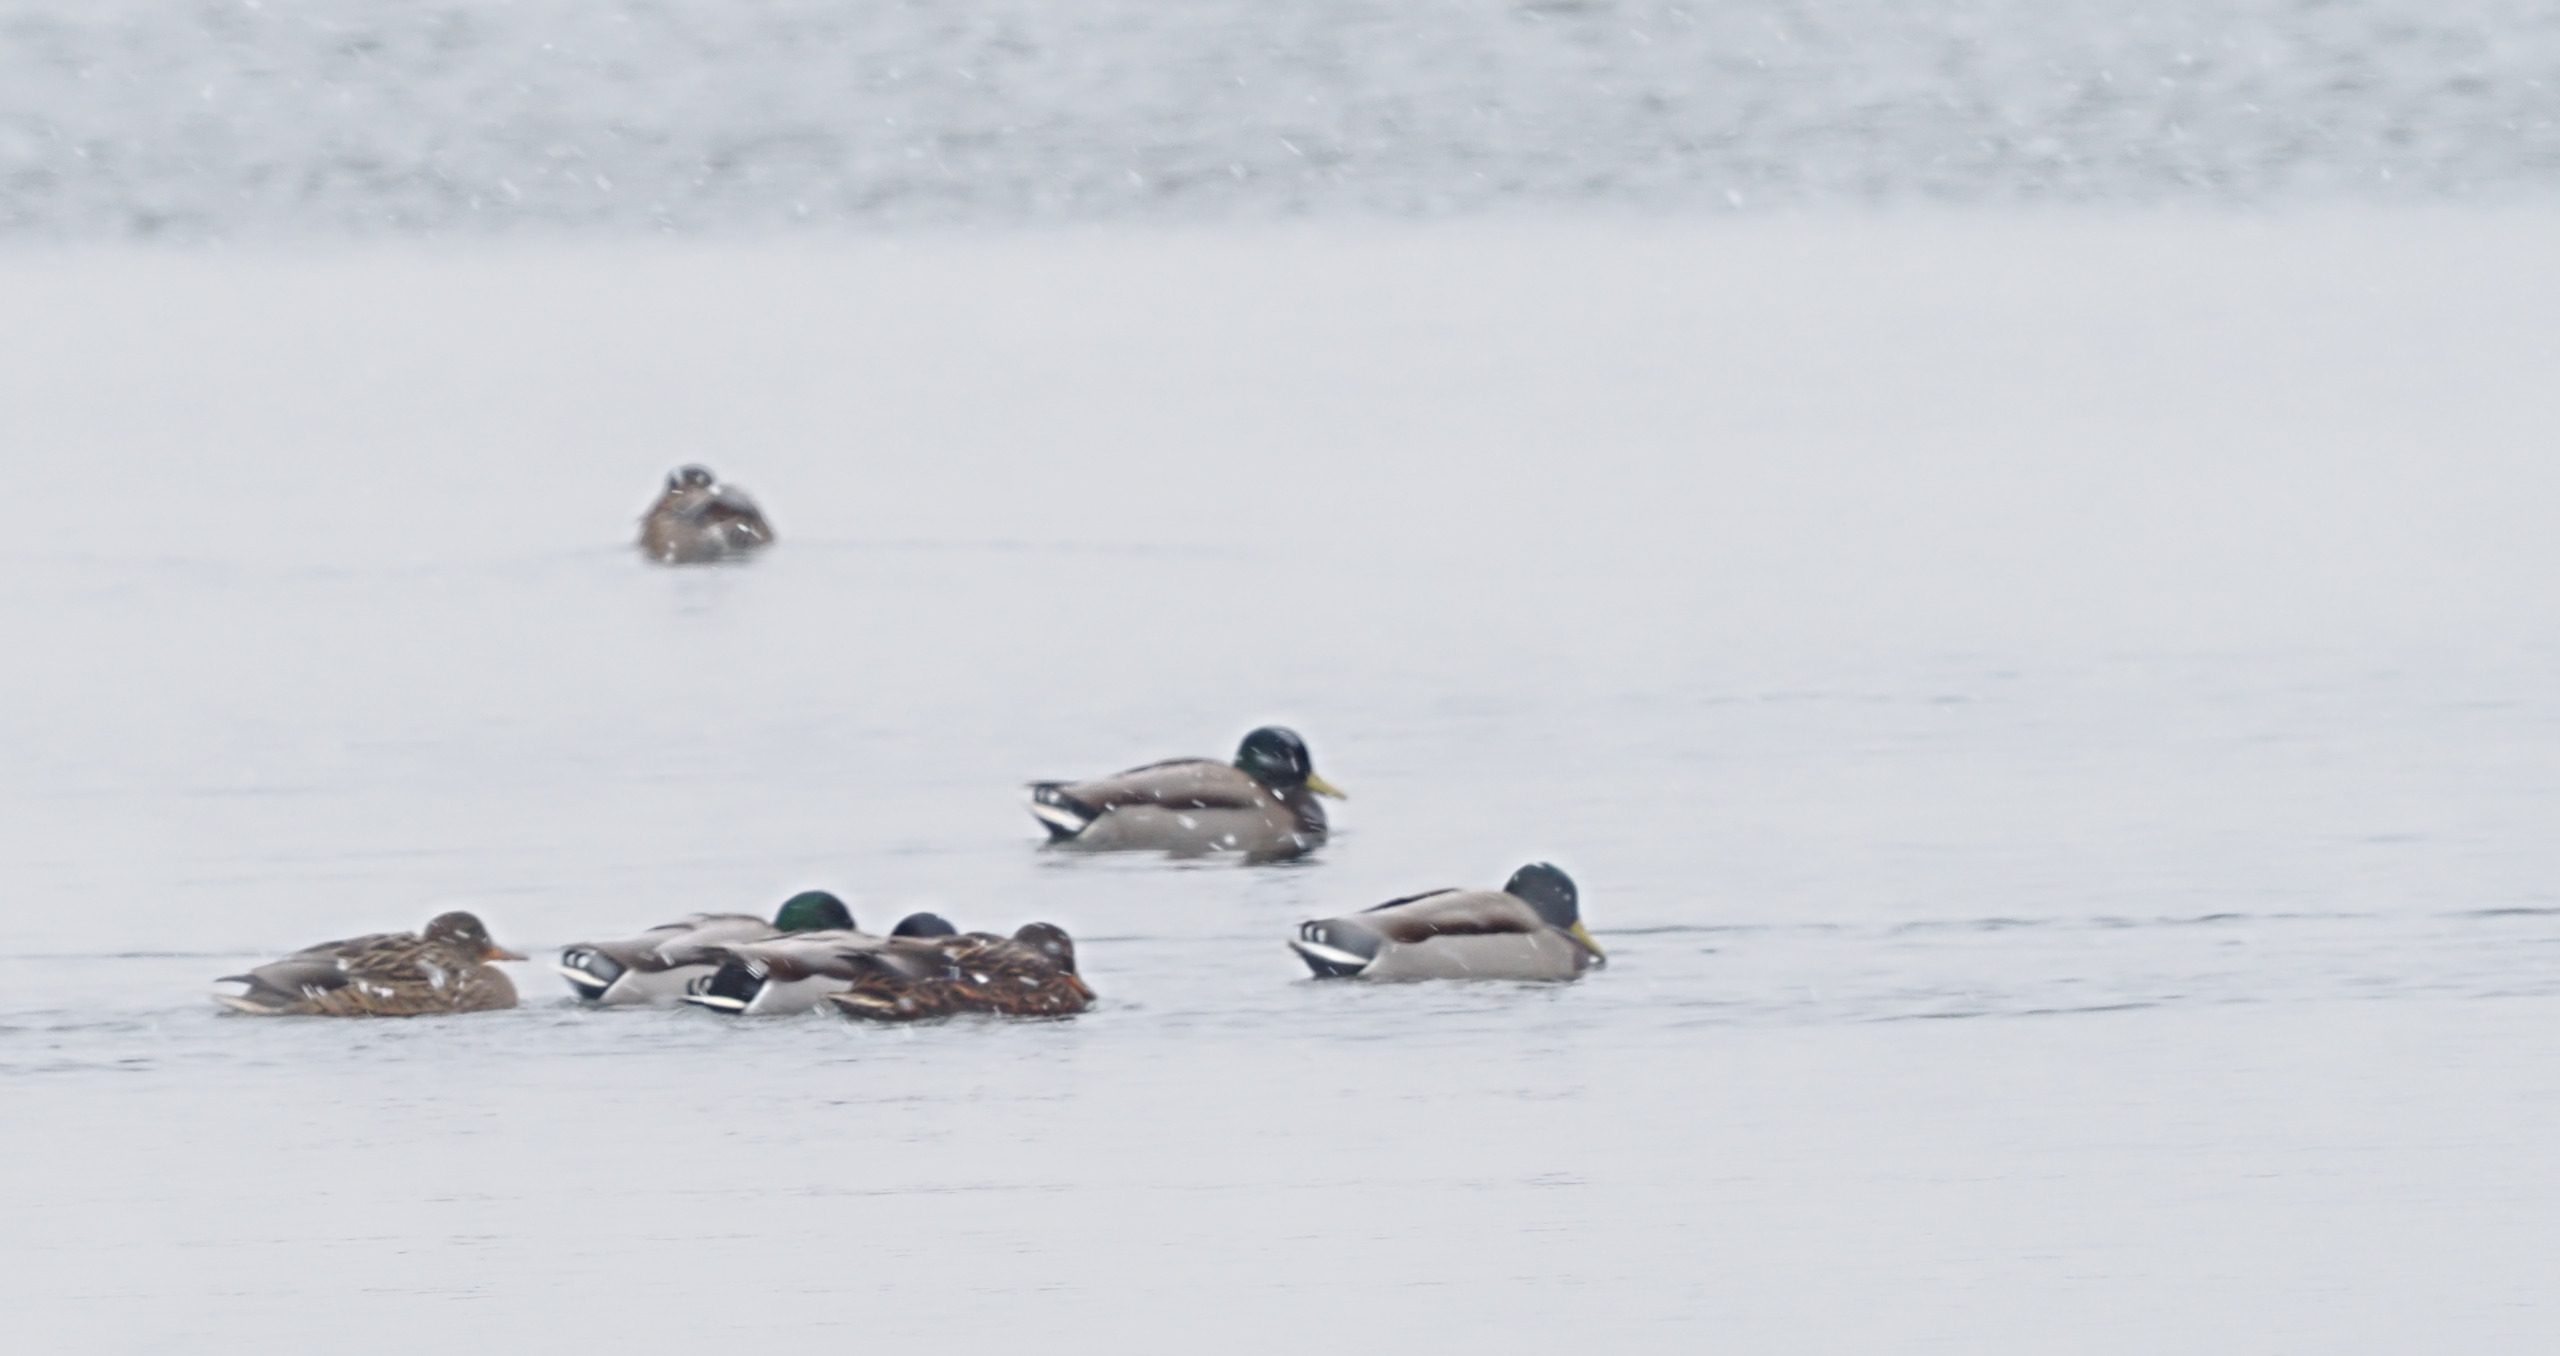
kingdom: Animalia
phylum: Chordata
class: Aves
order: Anseriformes
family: Anatidae
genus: Anas
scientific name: Anas platyrhynchos
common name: Gråand
